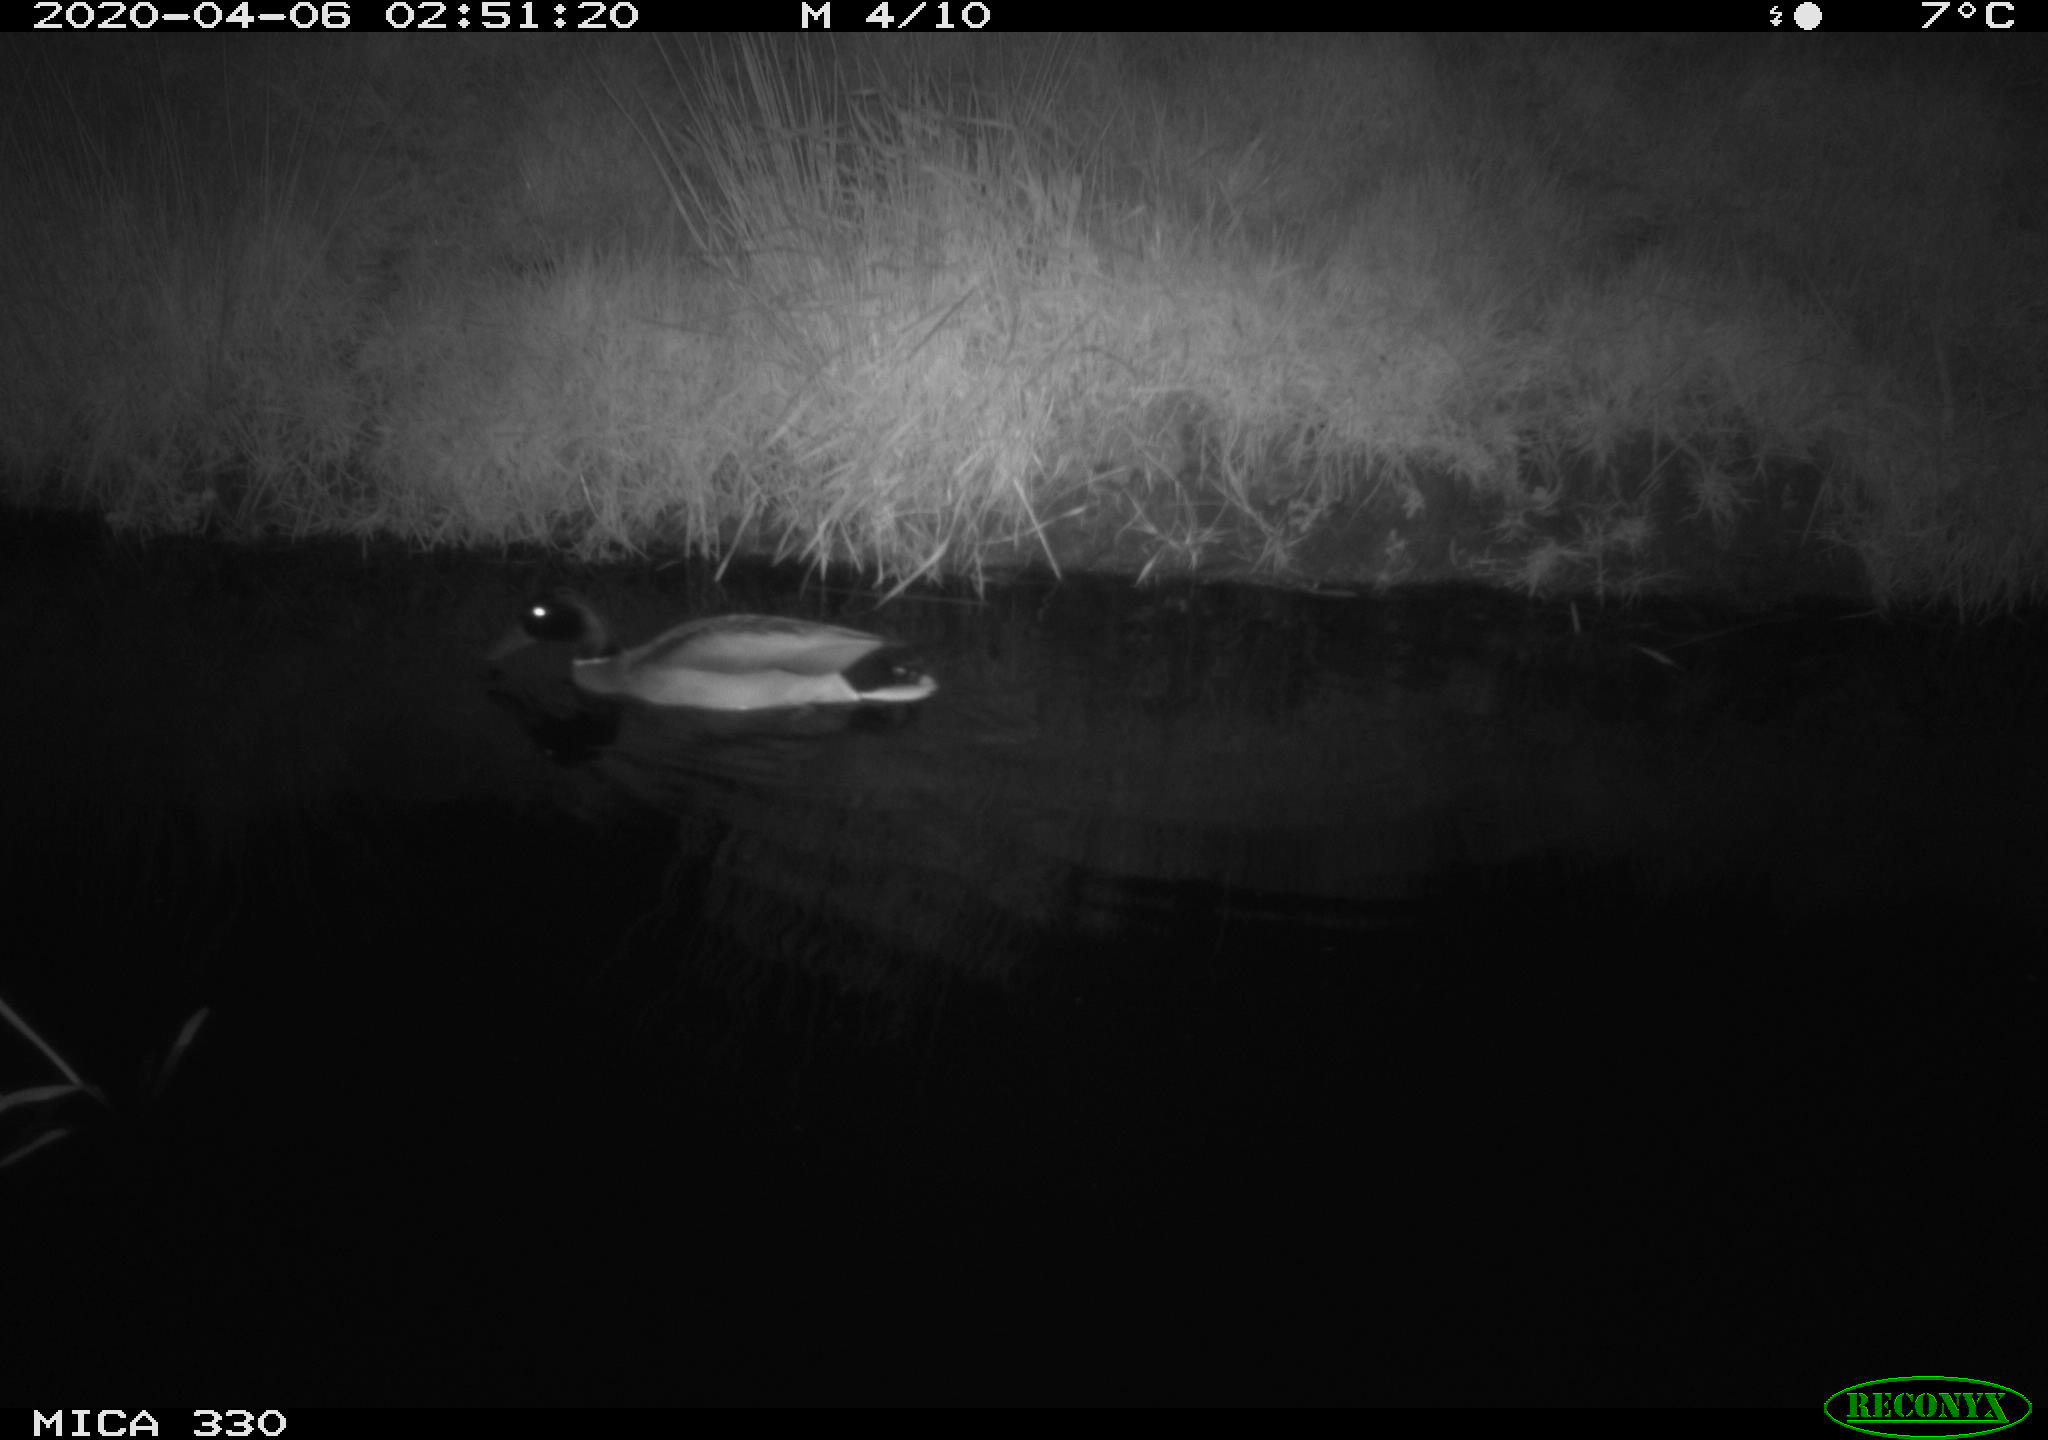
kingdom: Animalia
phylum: Chordata
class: Aves
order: Anseriformes
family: Anatidae
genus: Anas
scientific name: Anas platyrhynchos
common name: Mallard
